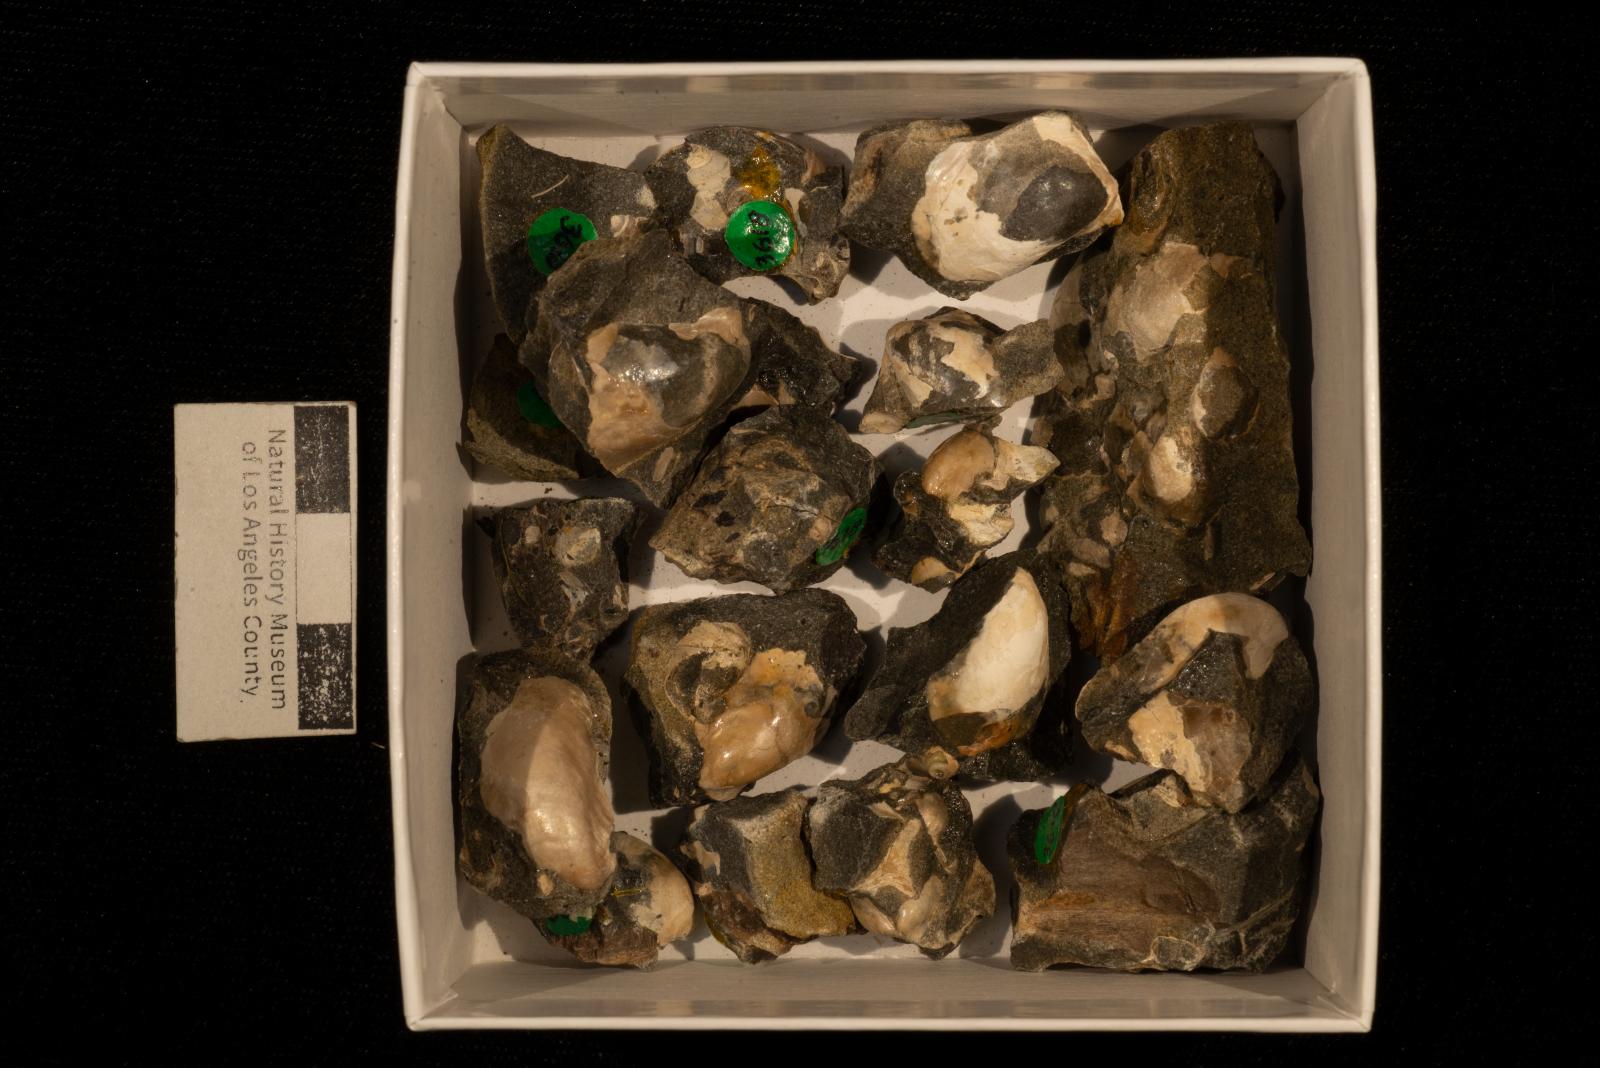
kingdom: Animalia
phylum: Mollusca
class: Bivalvia
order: Ostreida
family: Pteriidae
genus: Pteria
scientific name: Pteria pellucida
